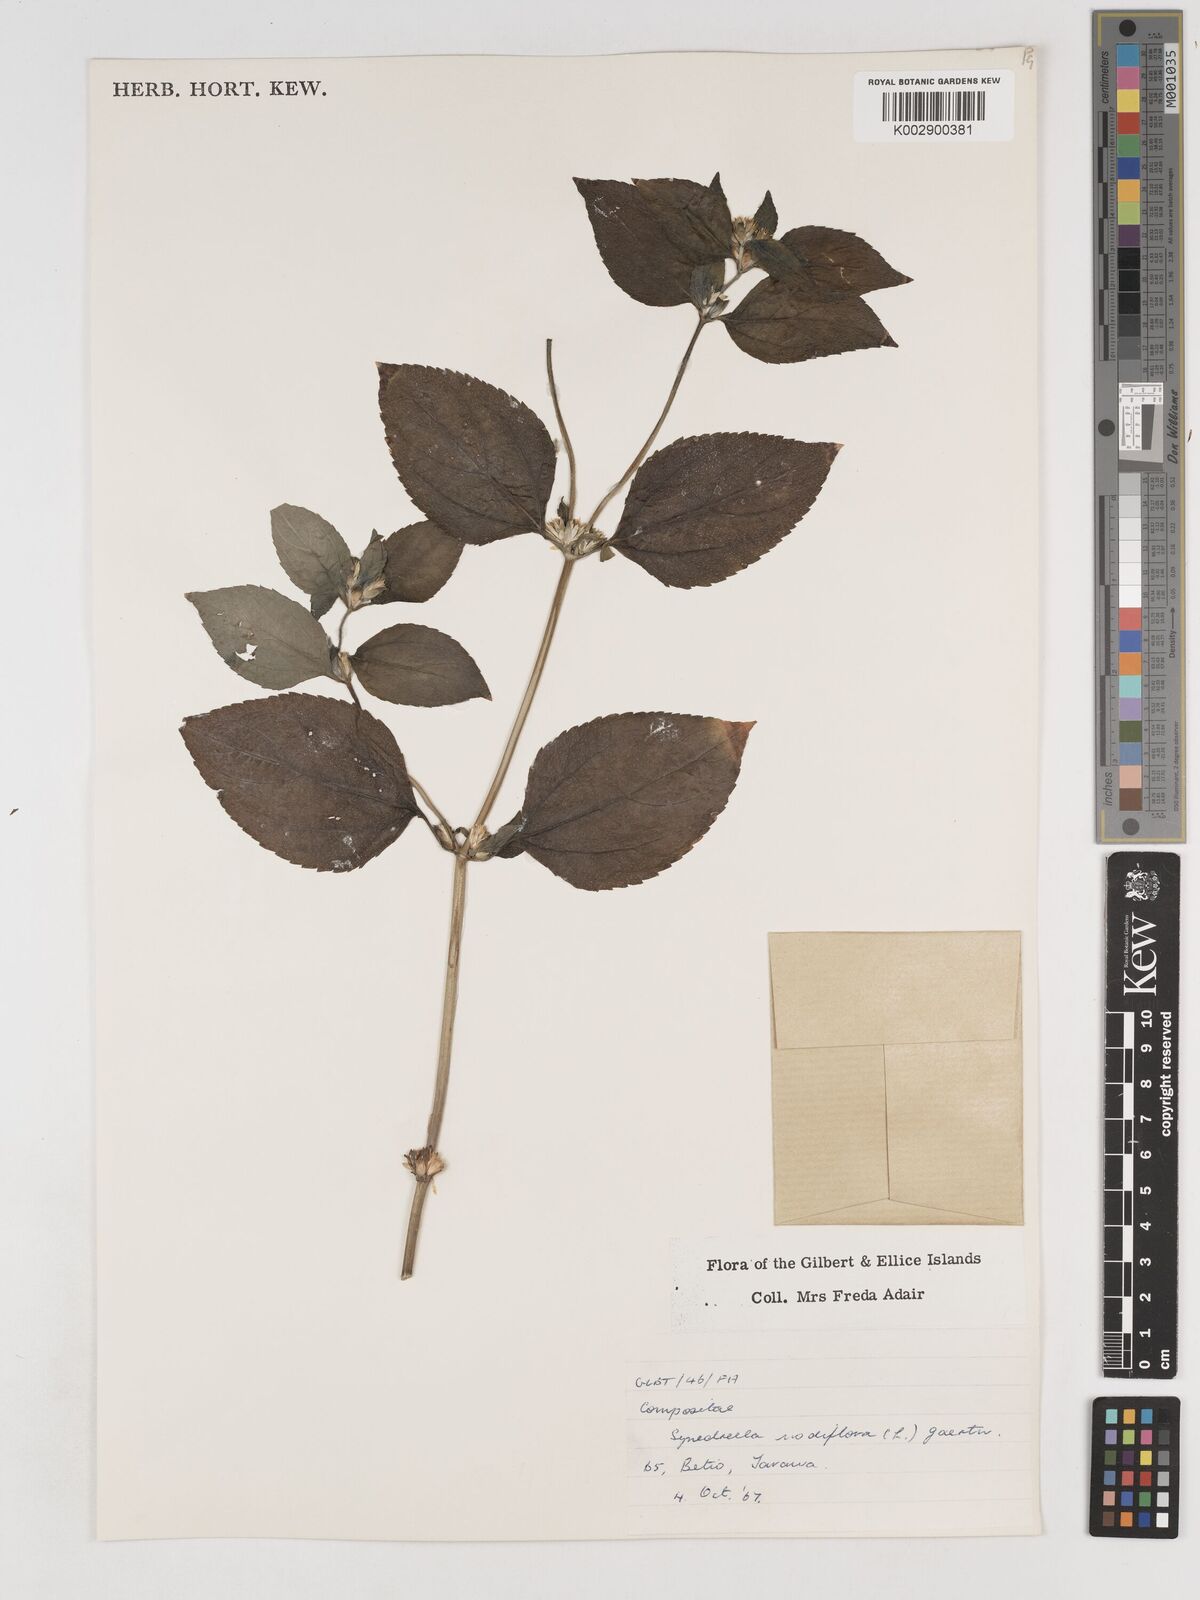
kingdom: Plantae
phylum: Tracheophyta
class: Magnoliopsida
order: Asterales
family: Asteraceae
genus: Synedrella
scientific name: Synedrella
